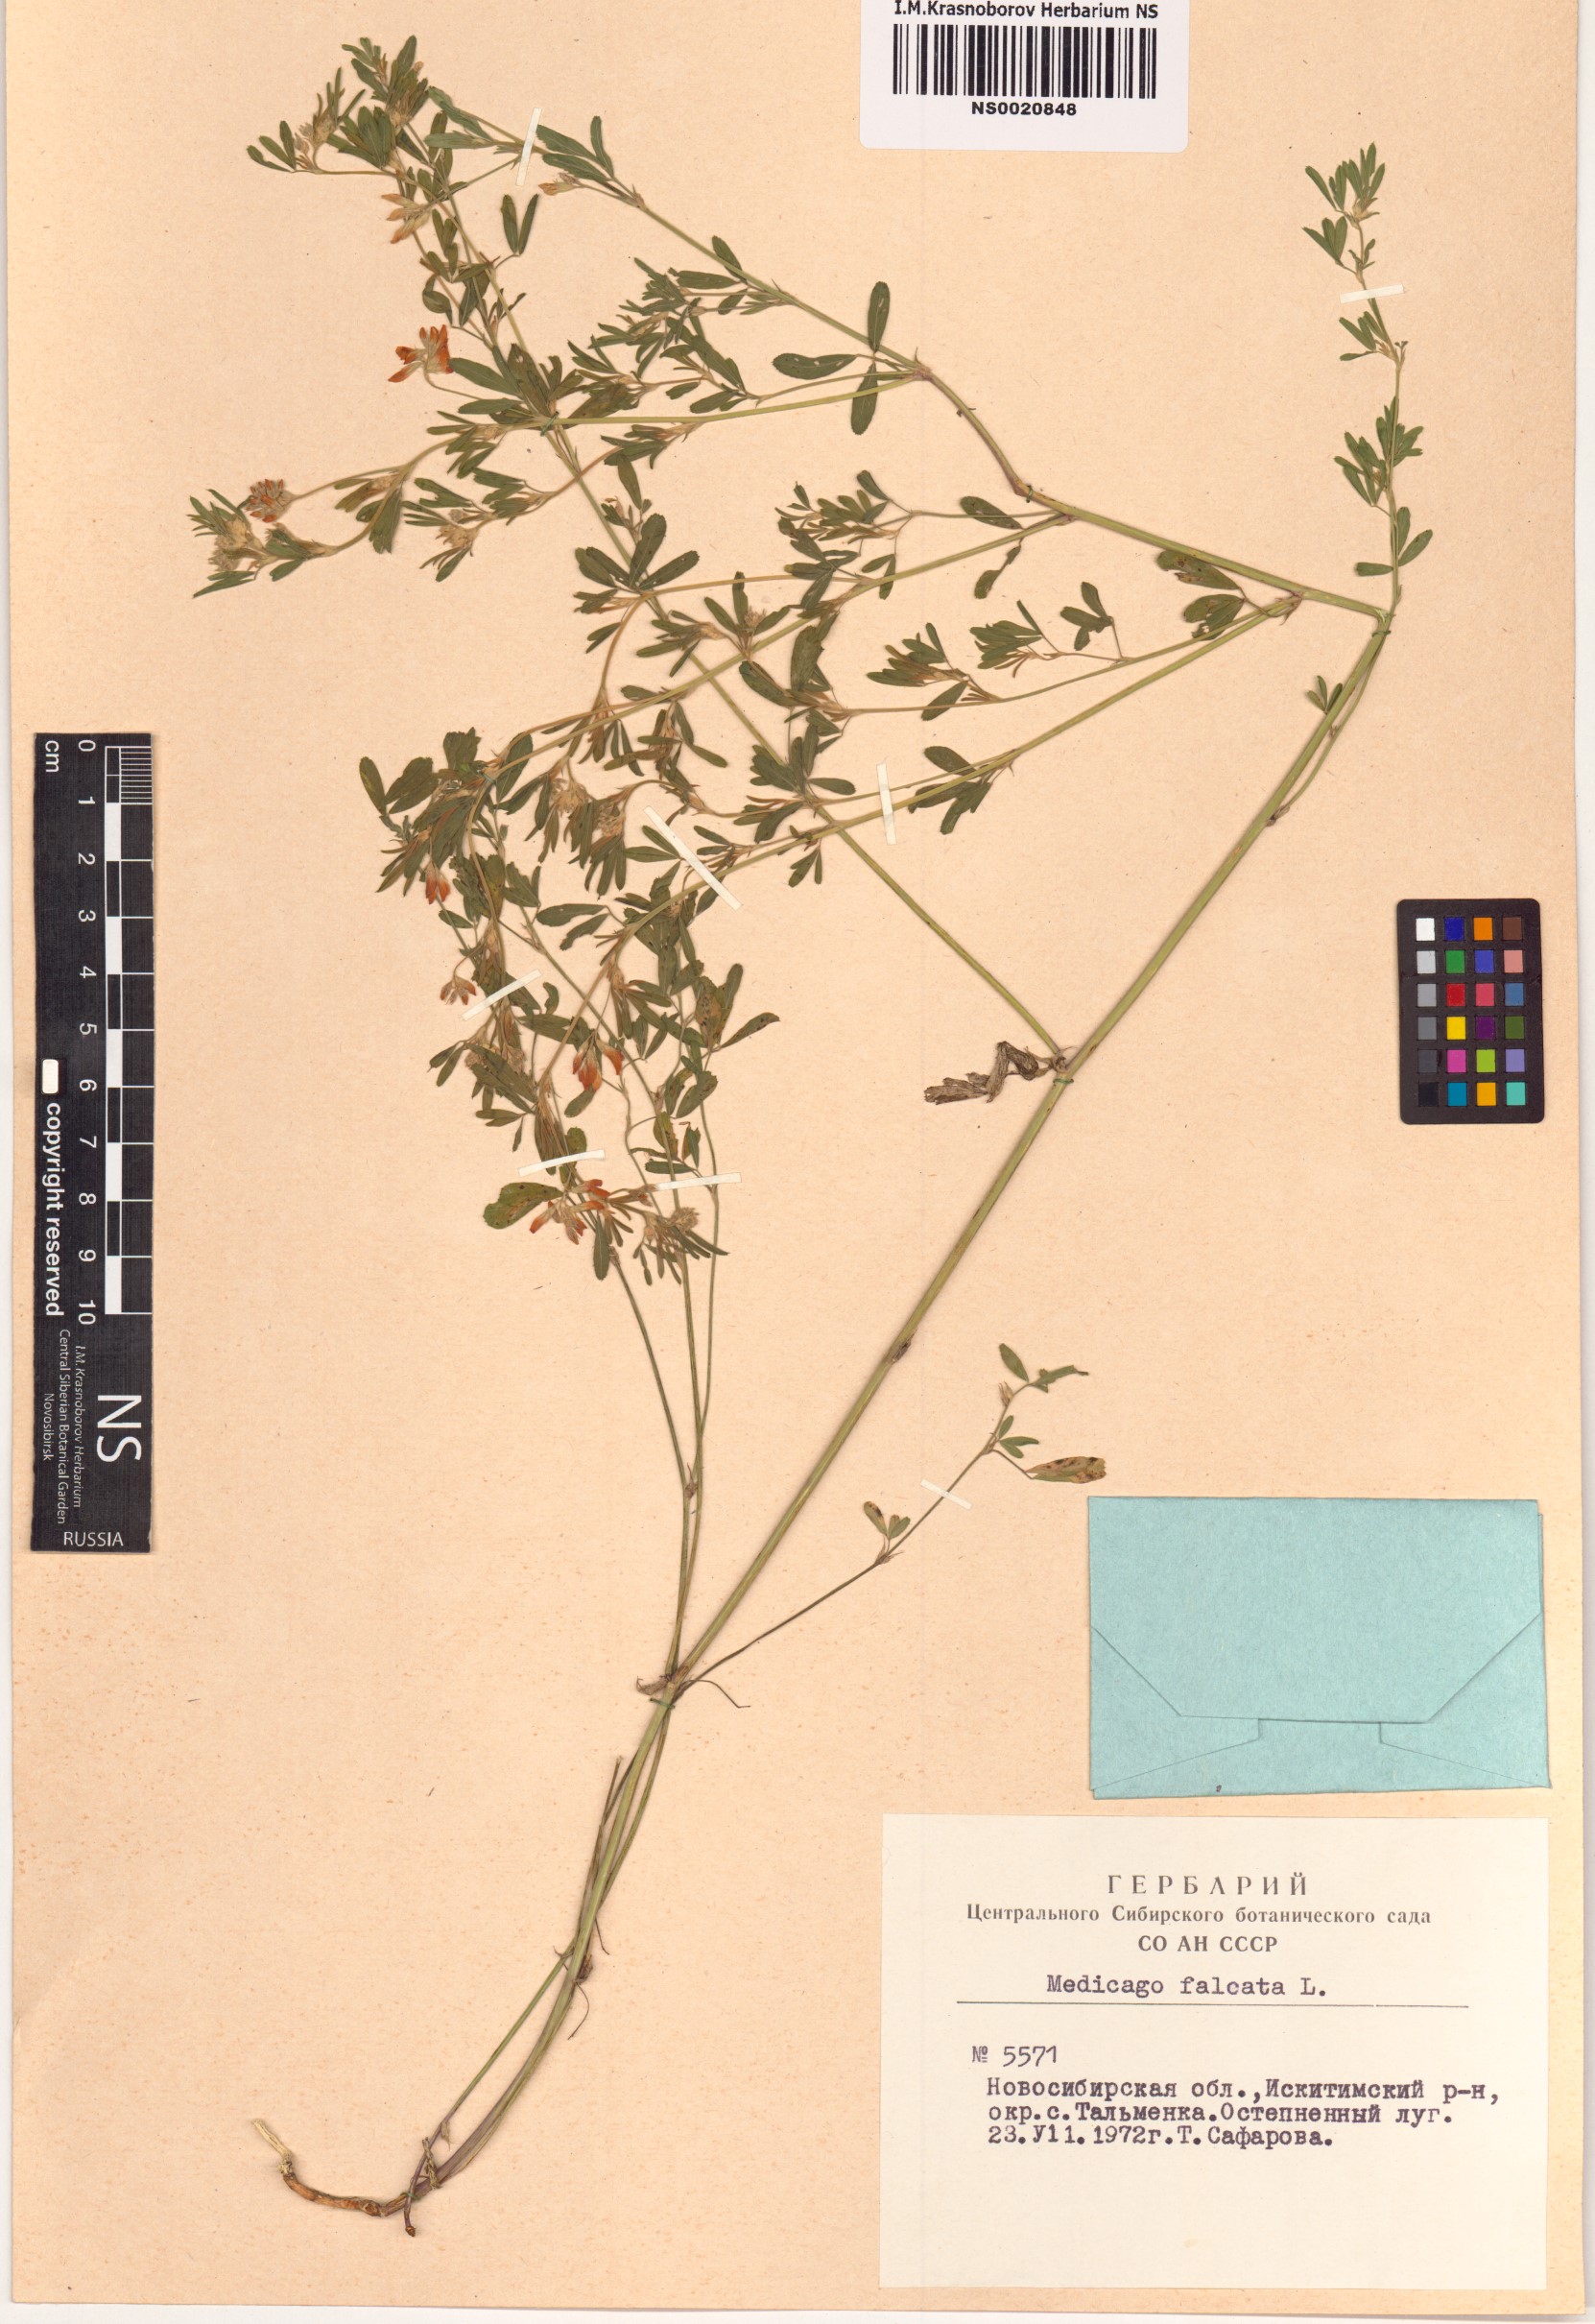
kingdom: Plantae
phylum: Tracheophyta
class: Magnoliopsida
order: Fabales
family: Fabaceae
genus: Medicago
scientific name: Medicago falcata
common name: Sickle medick
